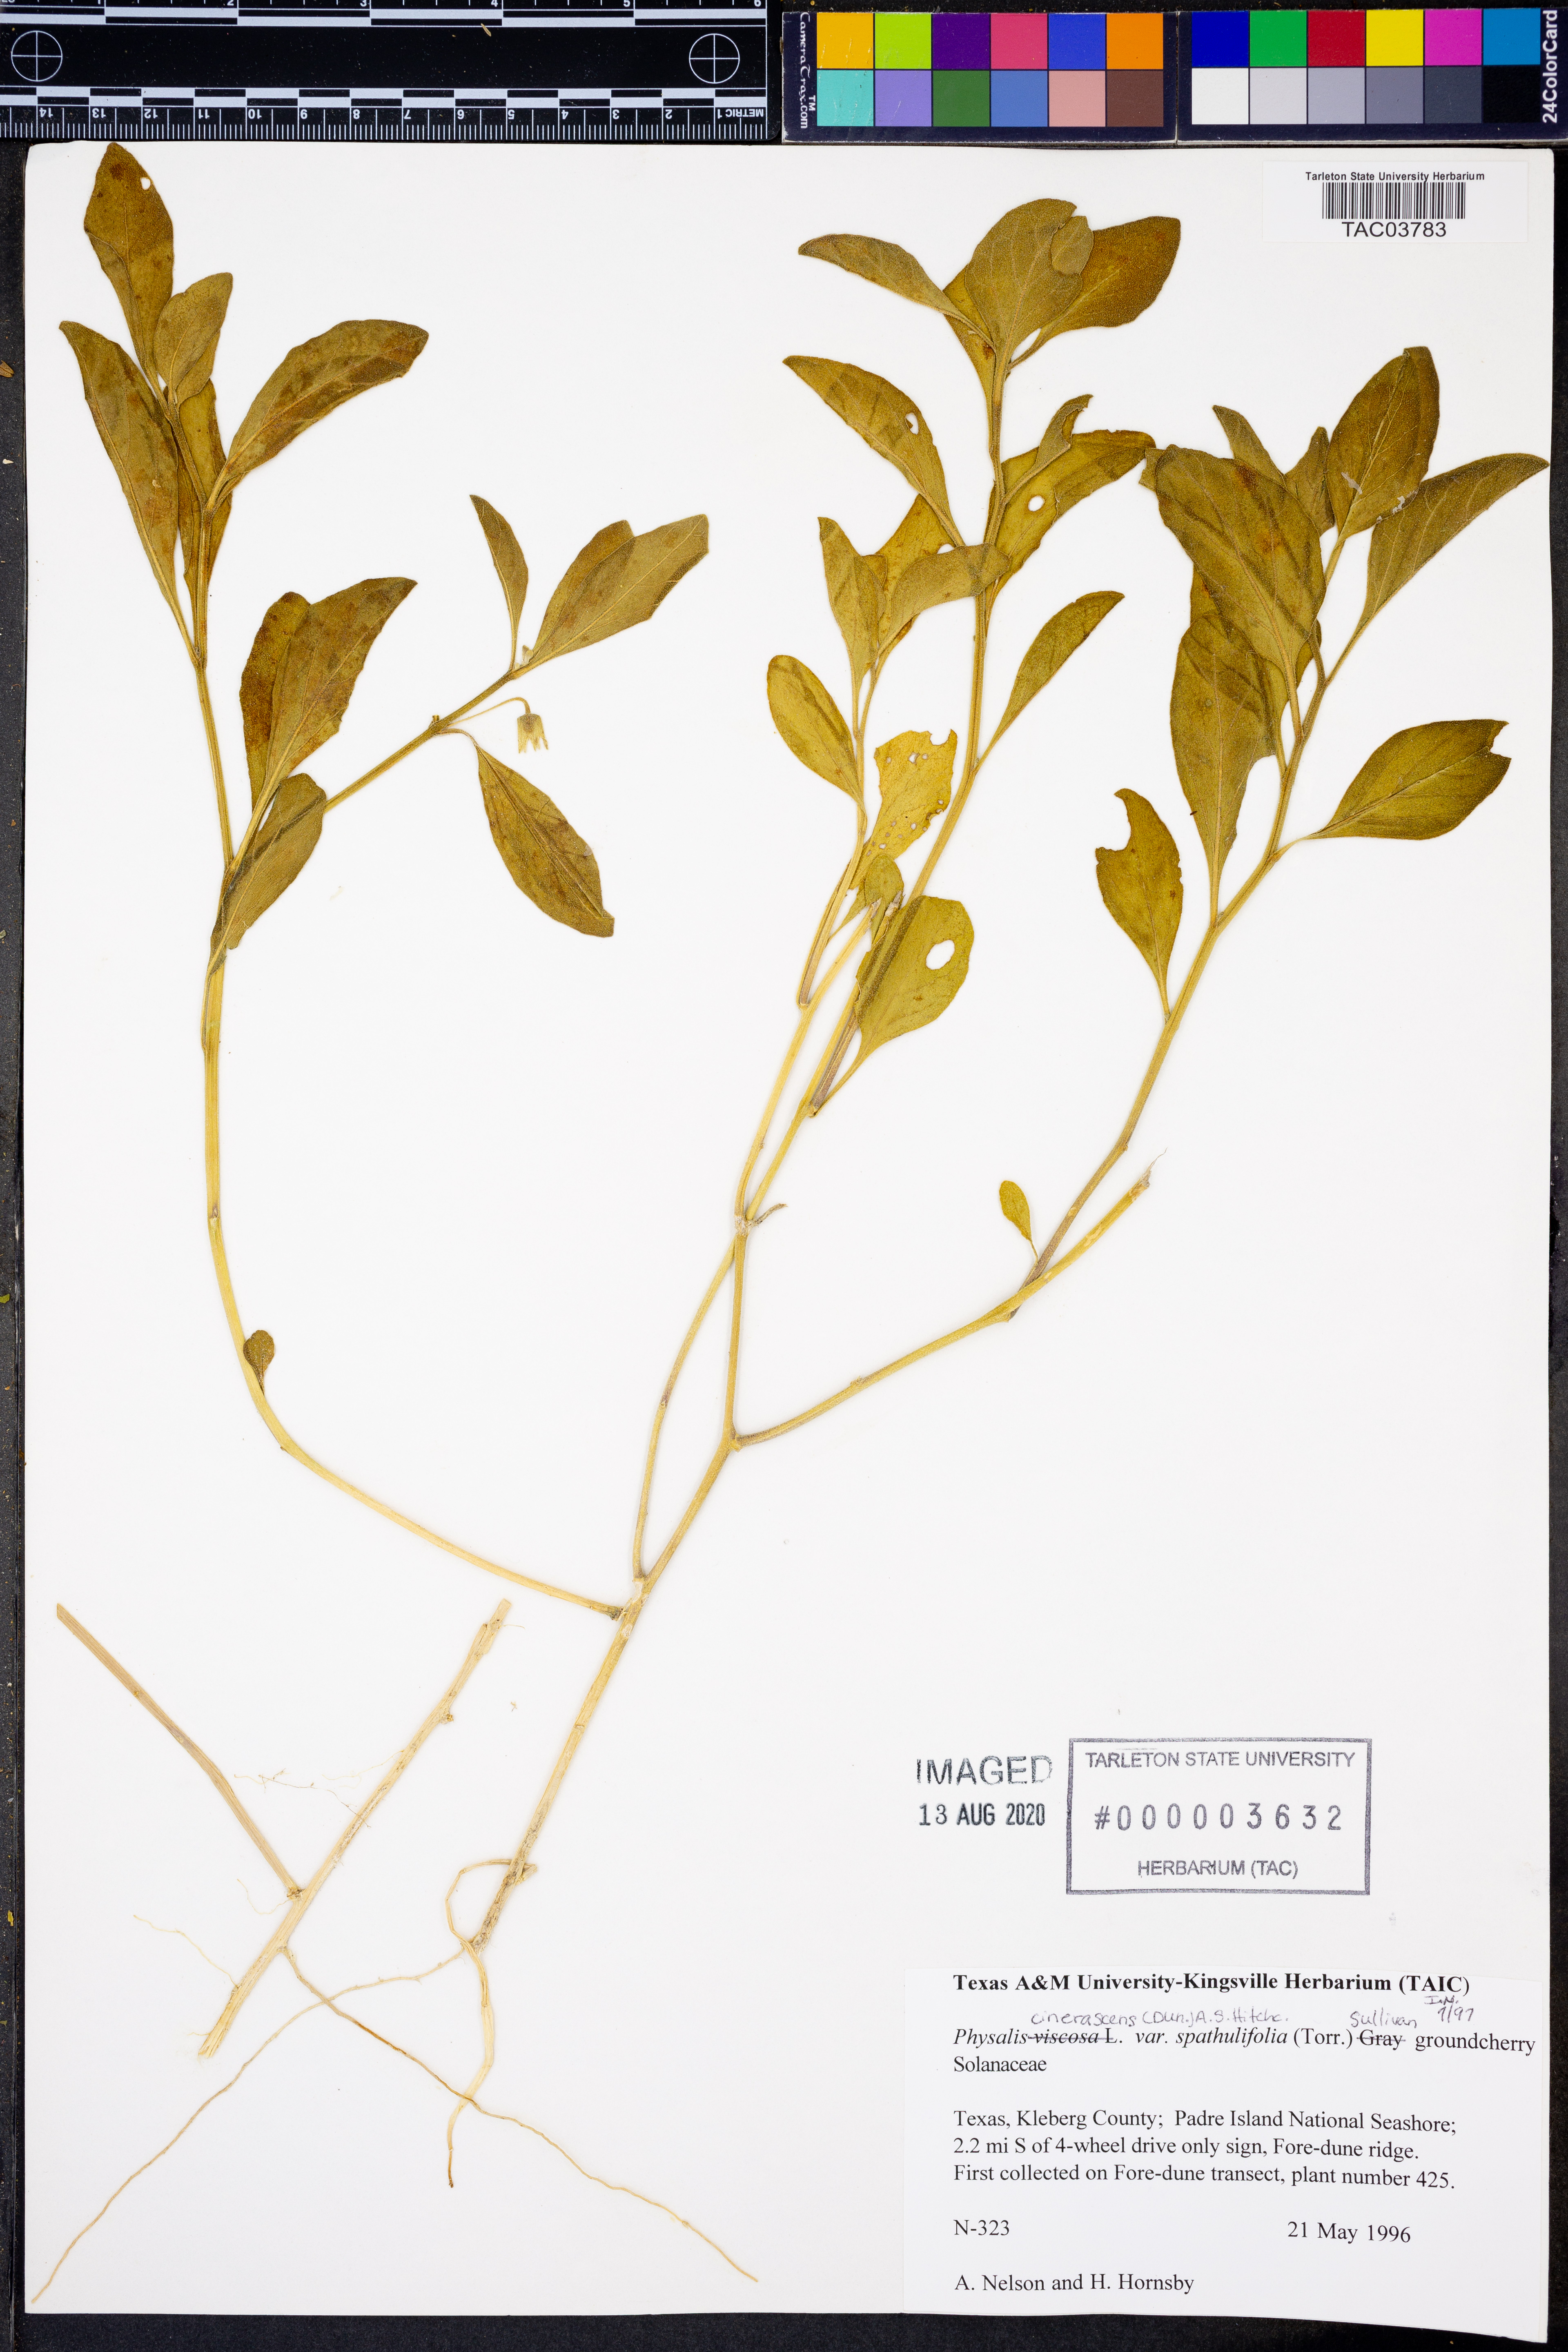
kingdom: Plantae
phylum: Tracheophyta
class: Magnoliopsida
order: Solanales
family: Solanaceae
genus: Physalis
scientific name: Physalis cinerascens
